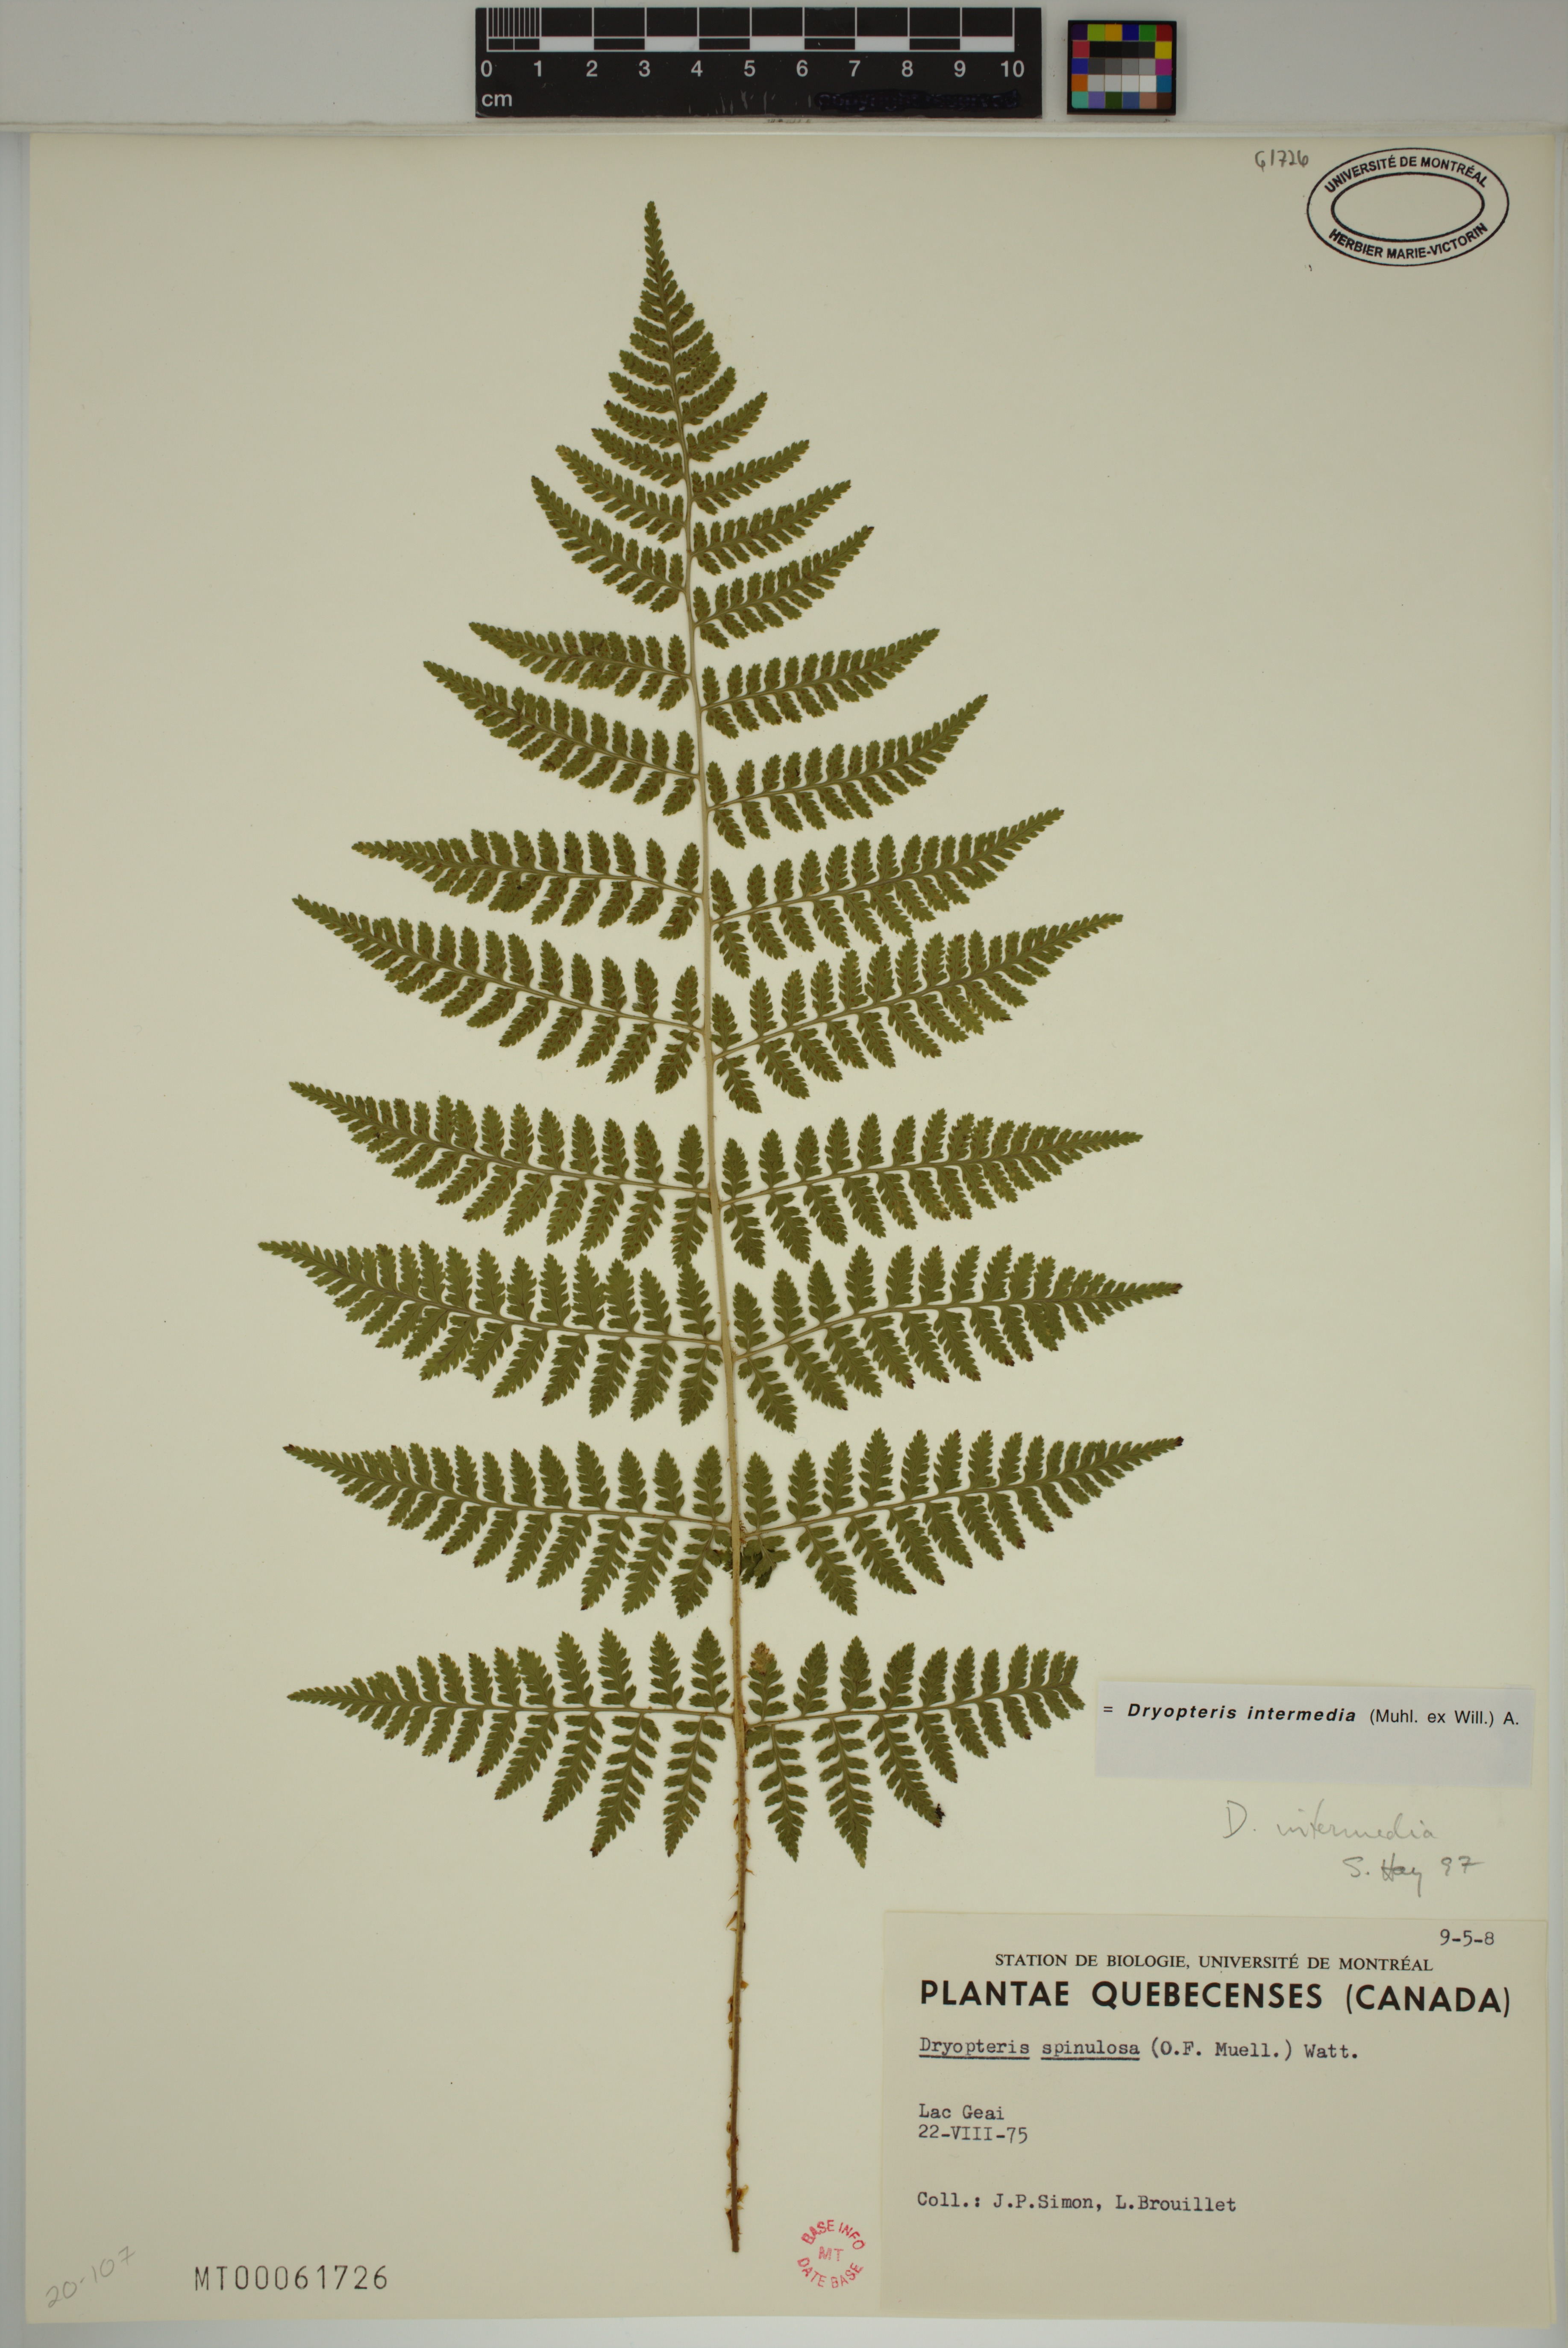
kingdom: Plantae
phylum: Tracheophyta
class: Polypodiopsida
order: Polypodiales
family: Dryopteridaceae
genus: Dryopteris
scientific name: Dryopteris intermedia
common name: Evergreen wood fern
